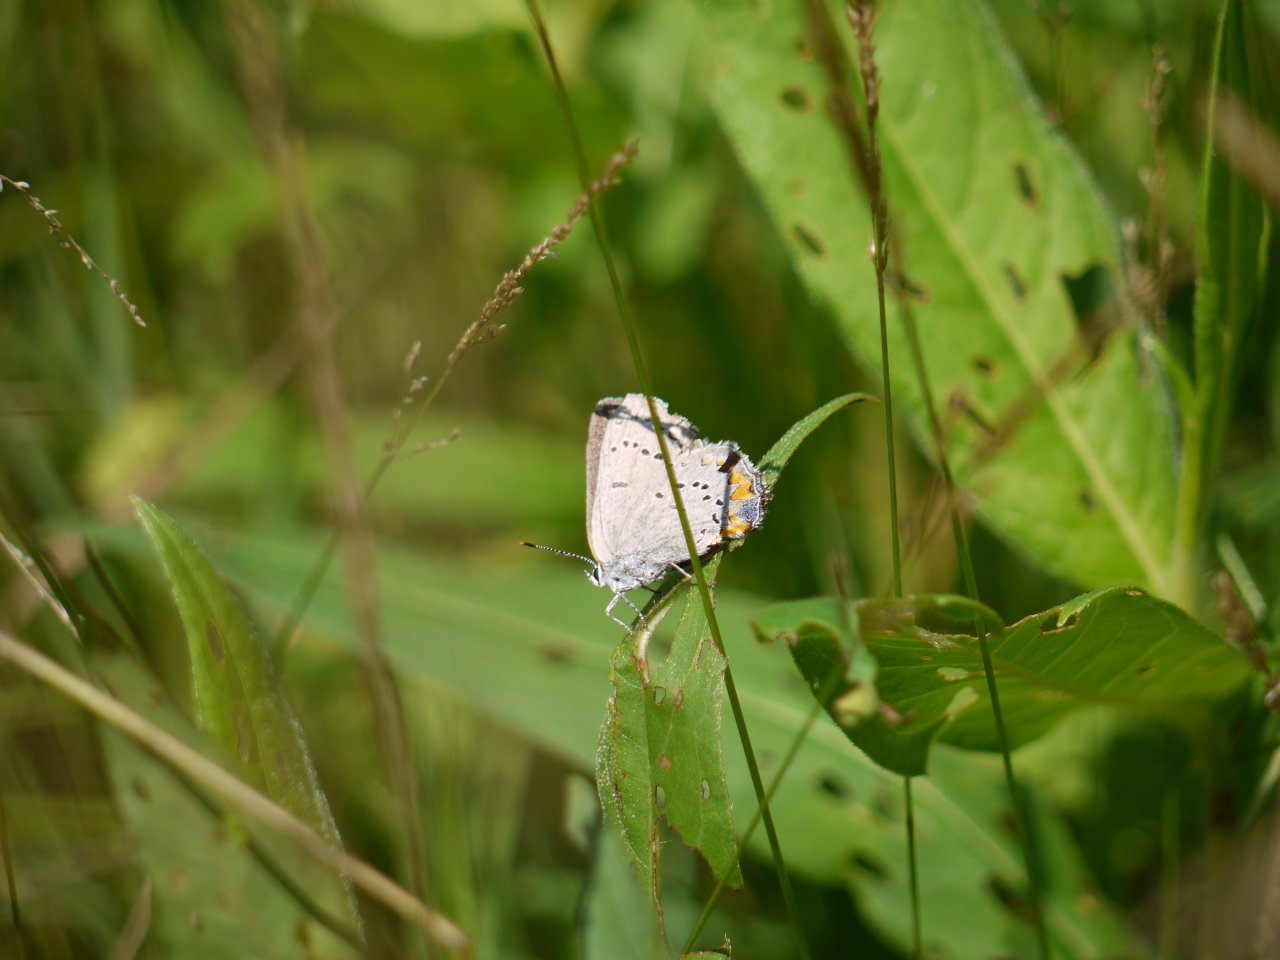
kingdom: Animalia
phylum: Arthropoda
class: Insecta
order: Lepidoptera
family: Lycaenidae
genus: Strymon
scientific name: Strymon acadica
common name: Acadian Hairstreak
